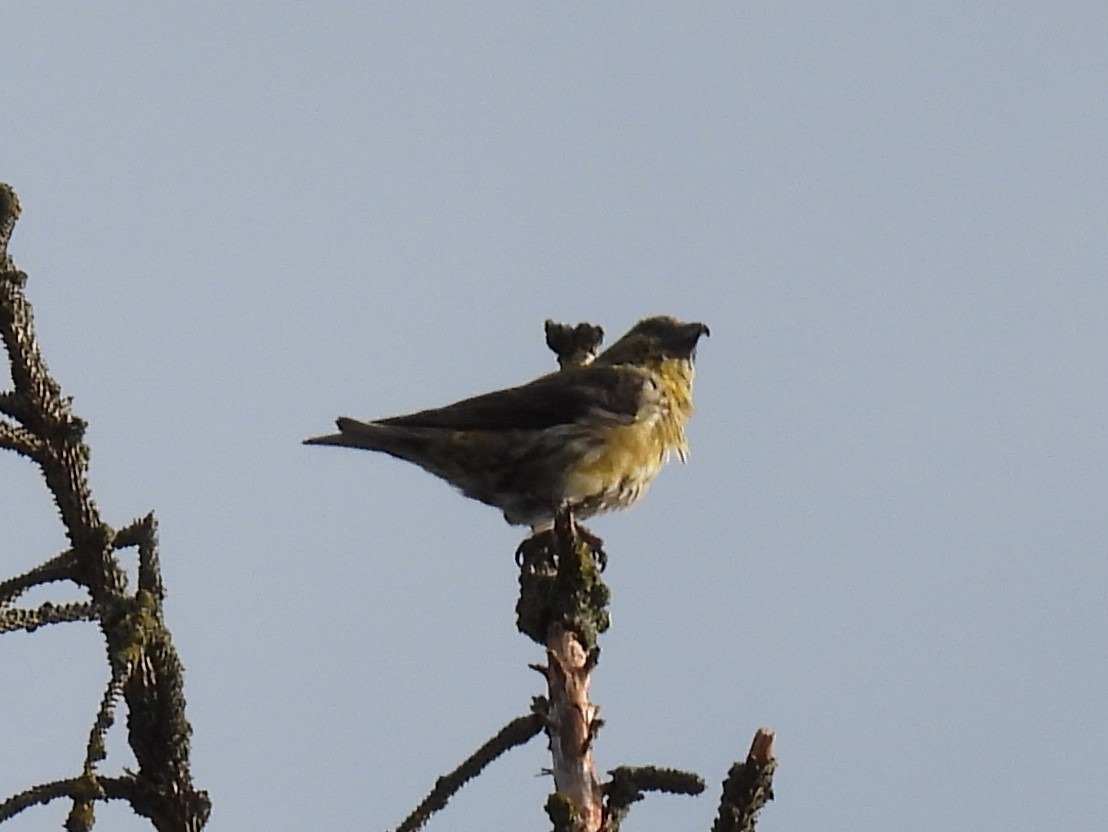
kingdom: Animalia
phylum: Chordata
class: Aves
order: Passeriformes
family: Fringillidae
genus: Loxia
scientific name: Loxia curvirostra
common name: Lille korsnæb
